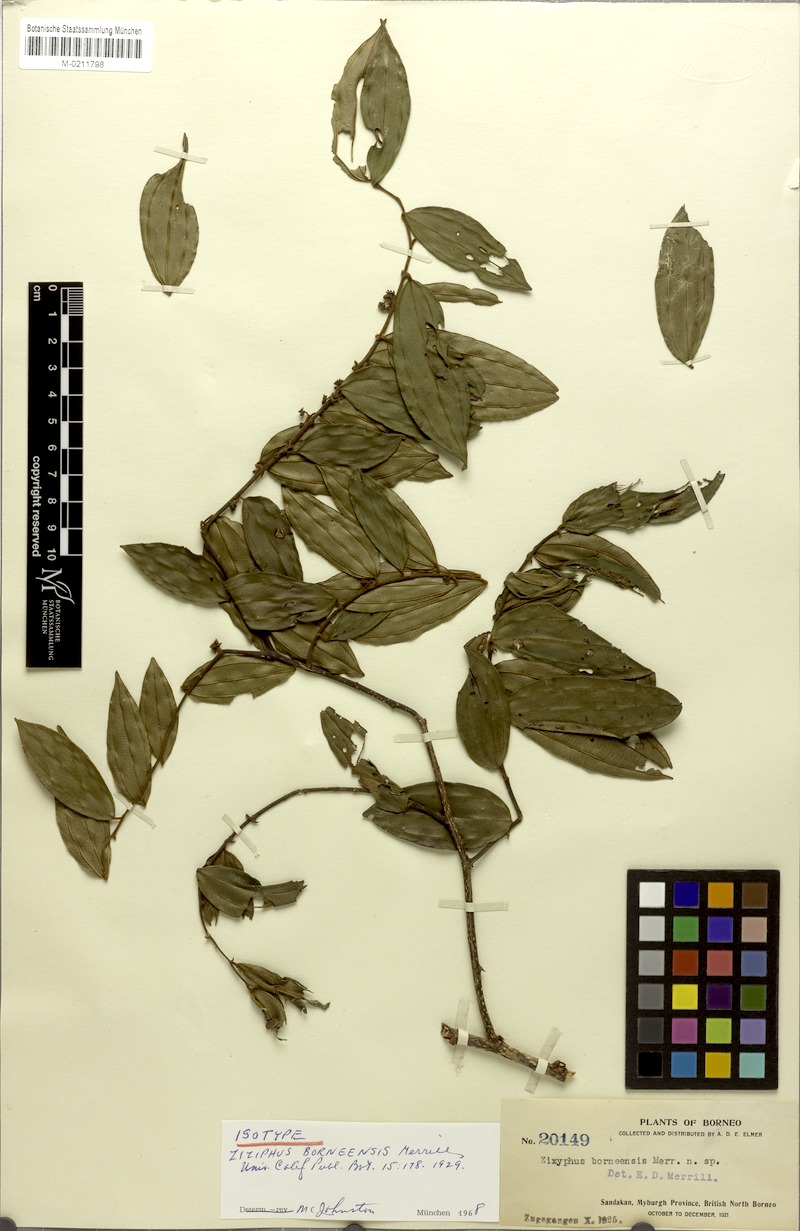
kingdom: Plantae
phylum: Tracheophyta
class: Magnoliopsida
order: Rosales
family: Rhamnaceae
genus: Ziziphus
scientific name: Ziziphus borneensis
